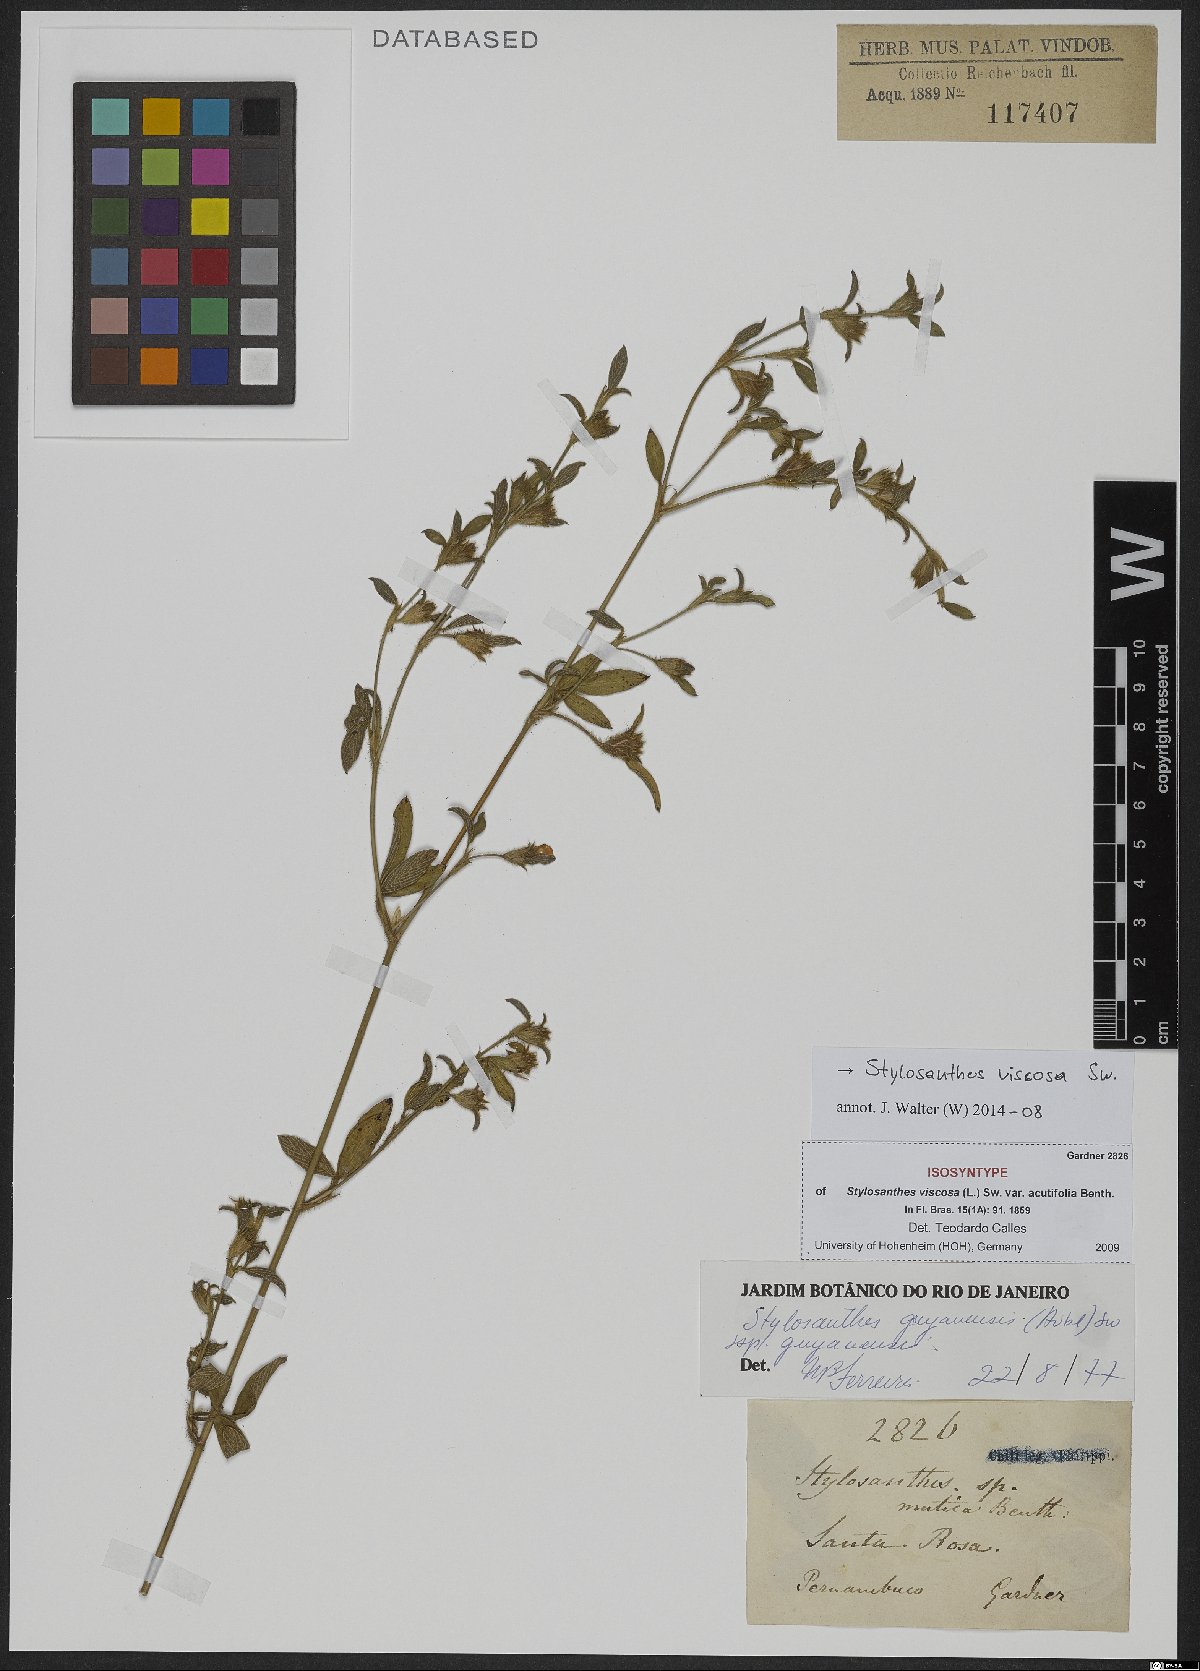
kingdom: Plantae
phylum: Tracheophyta
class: Magnoliopsida
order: Fabales
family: Fabaceae
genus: Stylosanthes
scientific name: Stylosanthes viscosa
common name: Viscid pencil-flower
